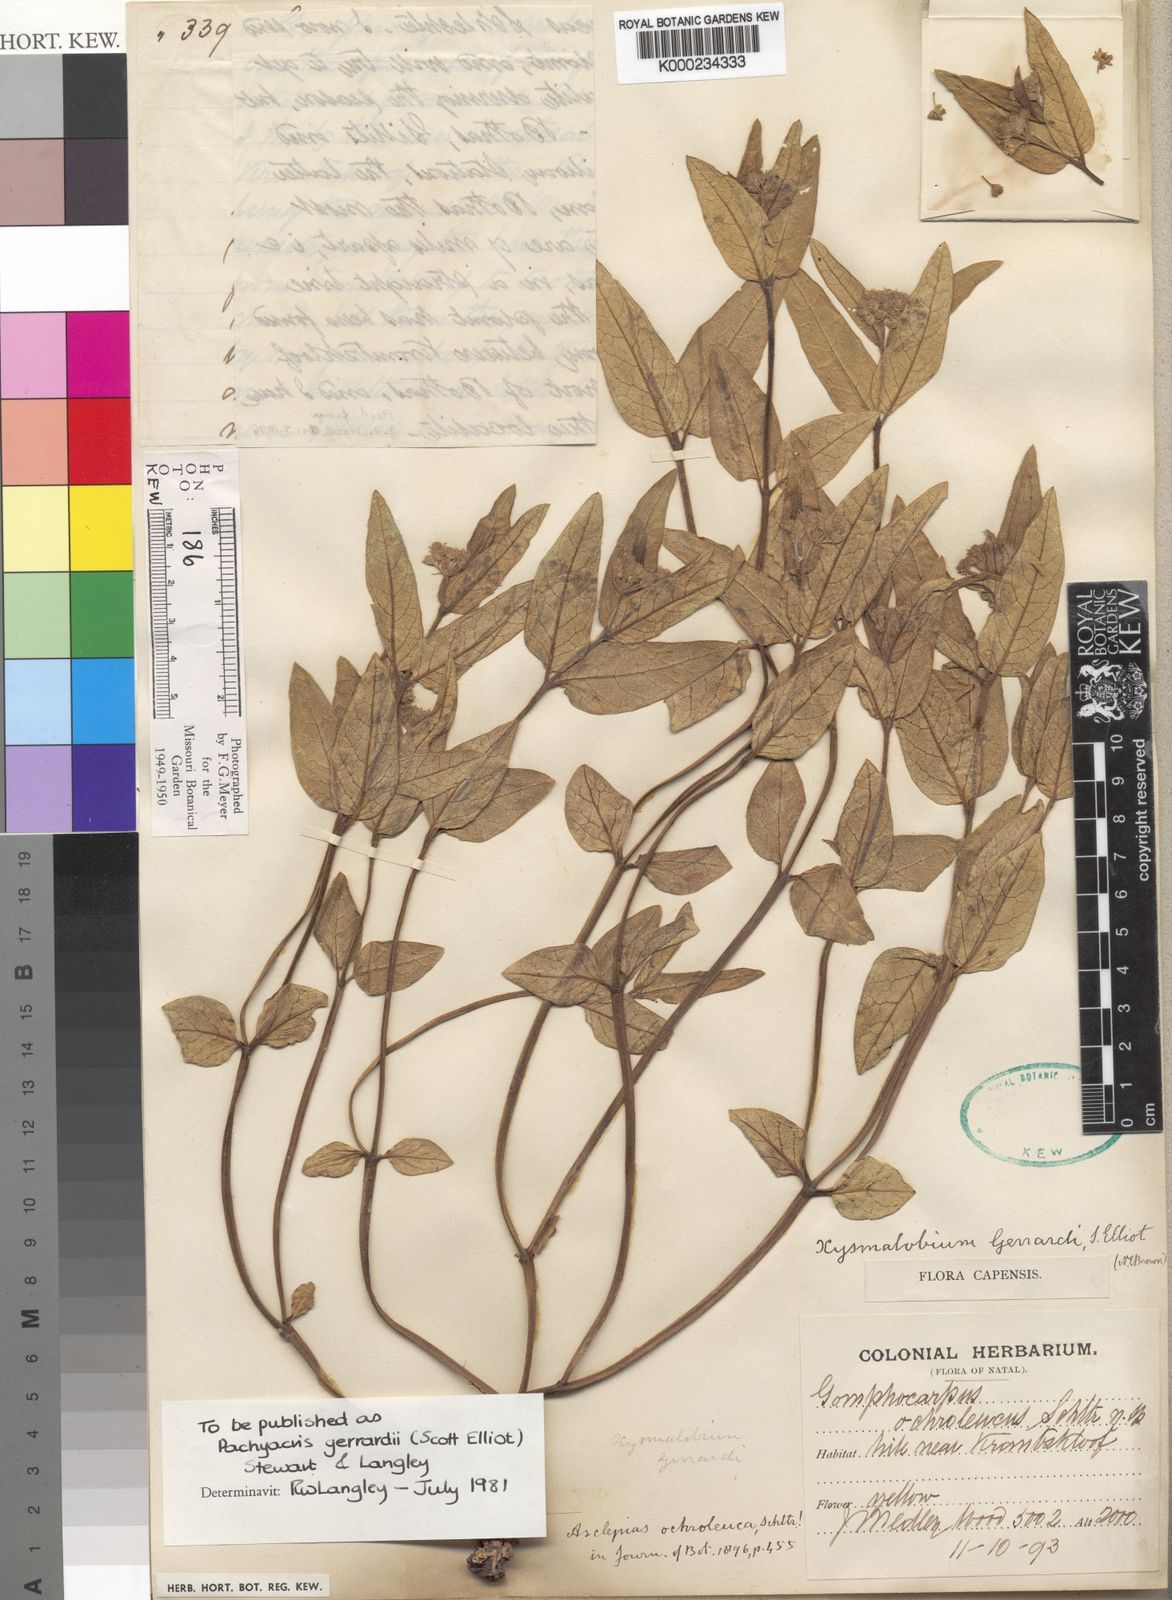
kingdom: Plantae
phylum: Tracheophyta
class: Magnoliopsida
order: Gentianales
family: Apocynaceae
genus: Xysmalobium
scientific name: Xysmalobium gerrardii
